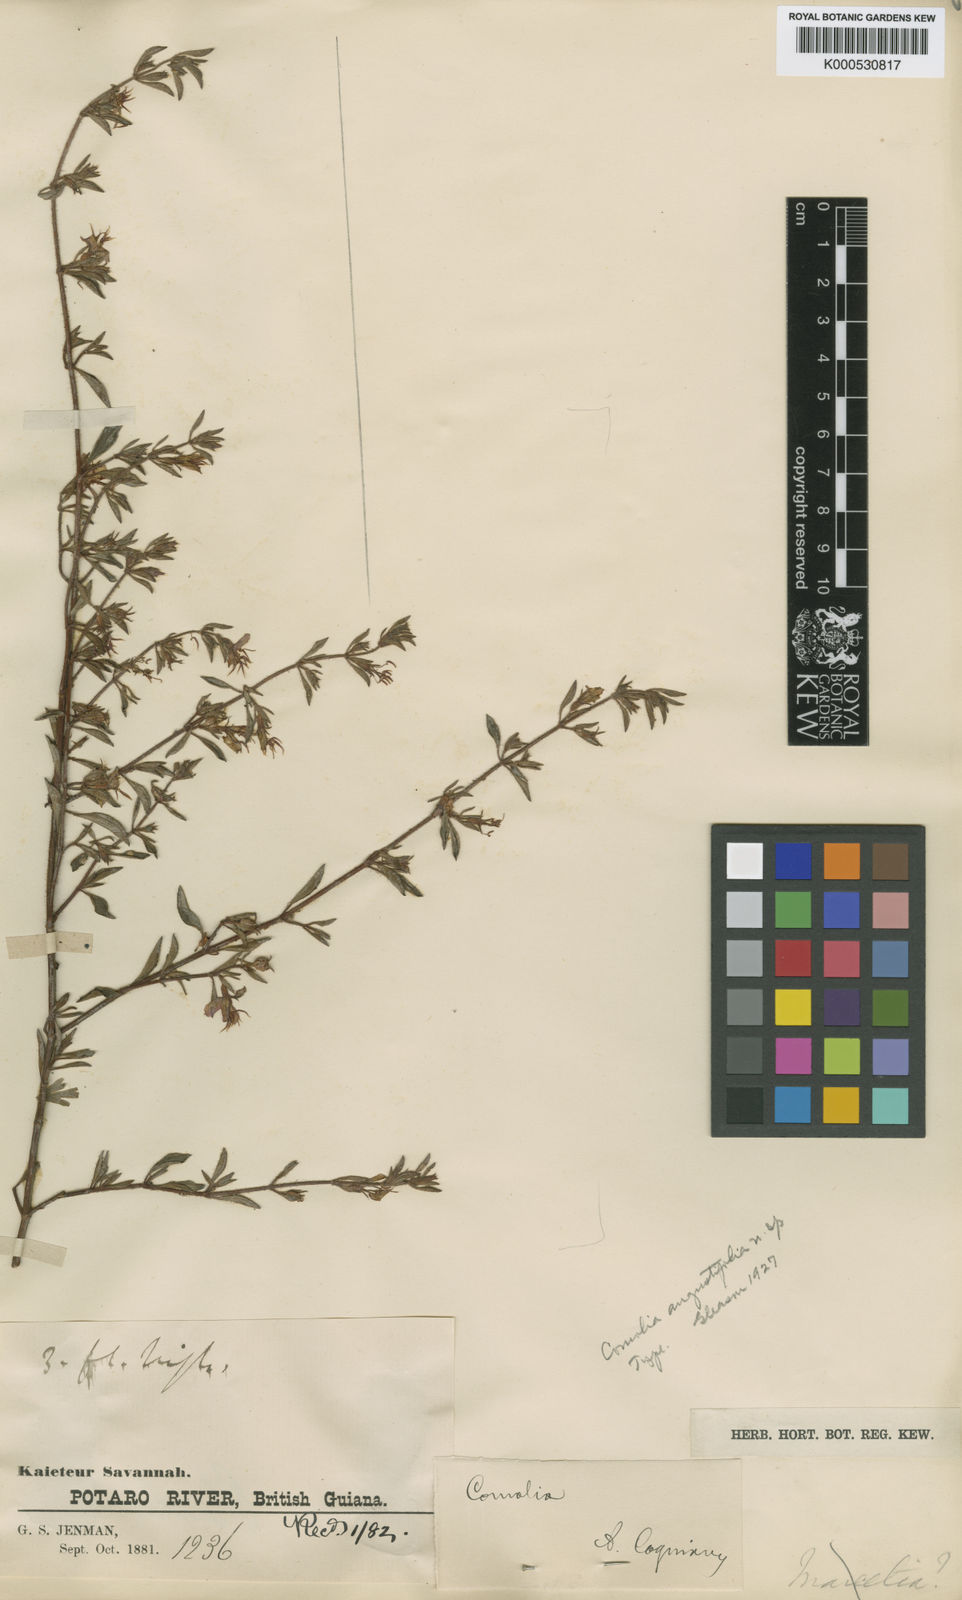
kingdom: Plantae
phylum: Tracheophyta
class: Magnoliopsida
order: Myrtales
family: Melastomataceae
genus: Comolia
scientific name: Comolia villosa
